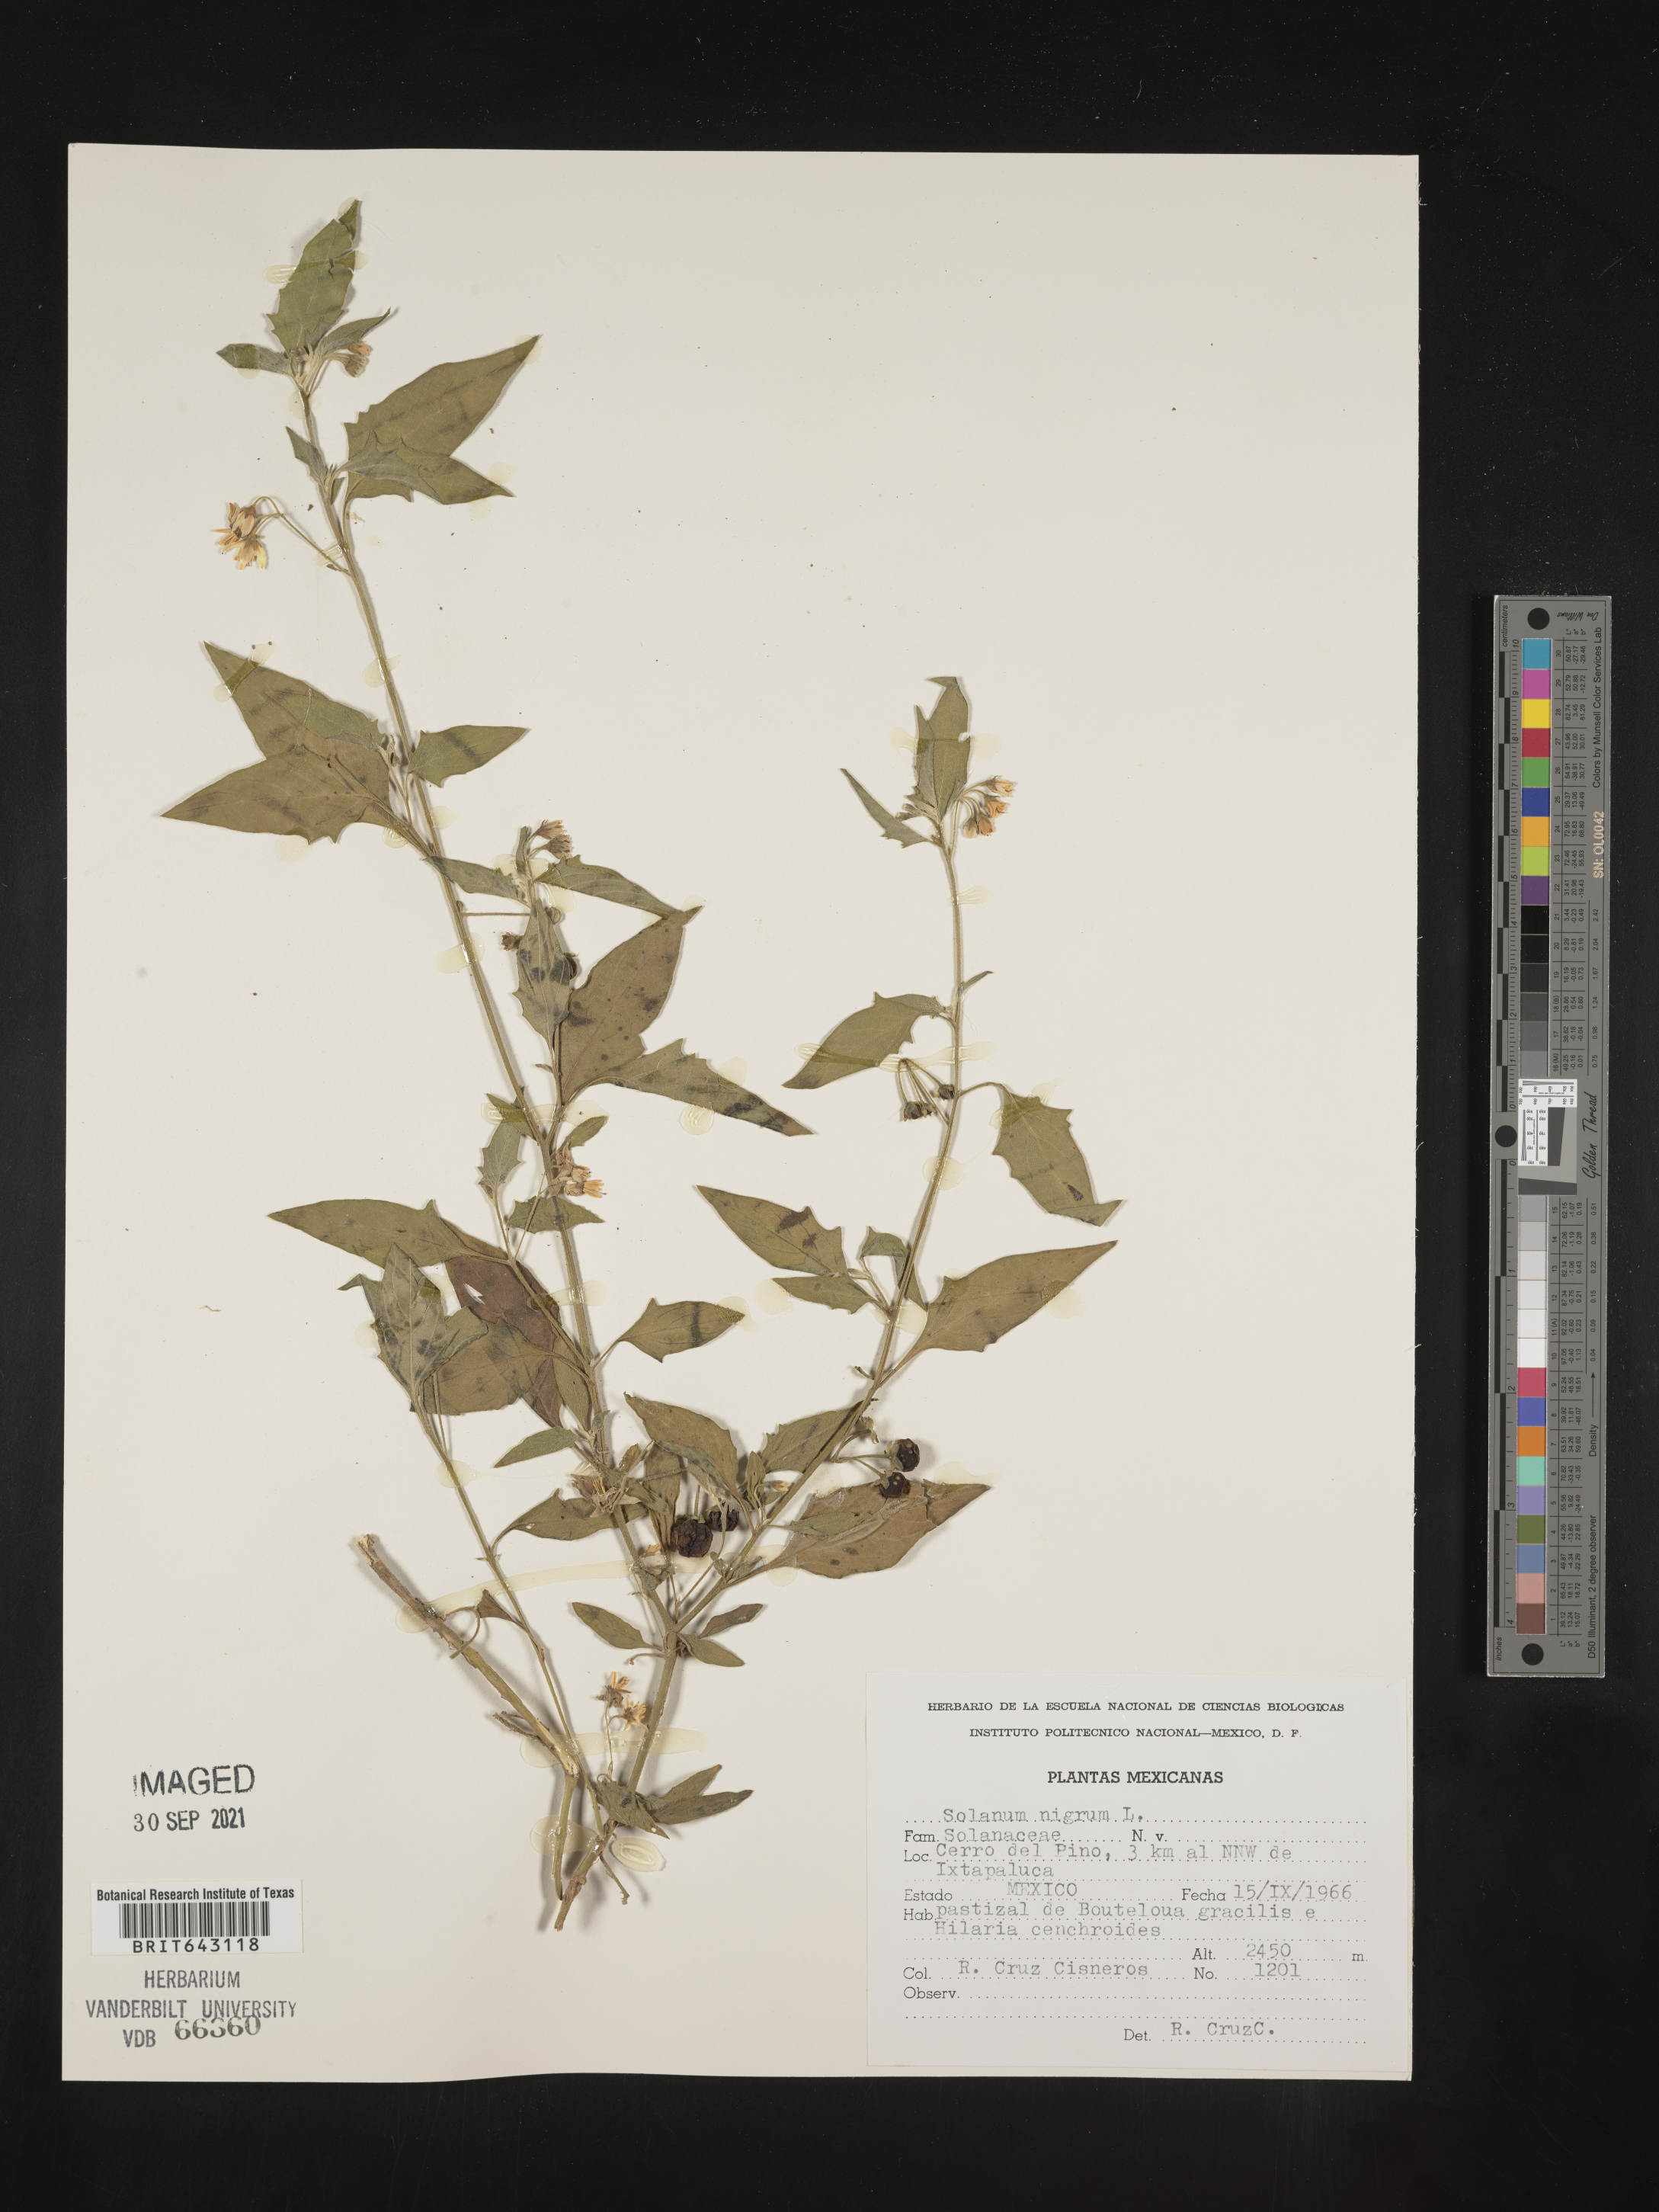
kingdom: Plantae
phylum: Tracheophyta
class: Magnoliopsida
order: Solanales
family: Solanaceae
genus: Solanum
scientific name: Solanum
